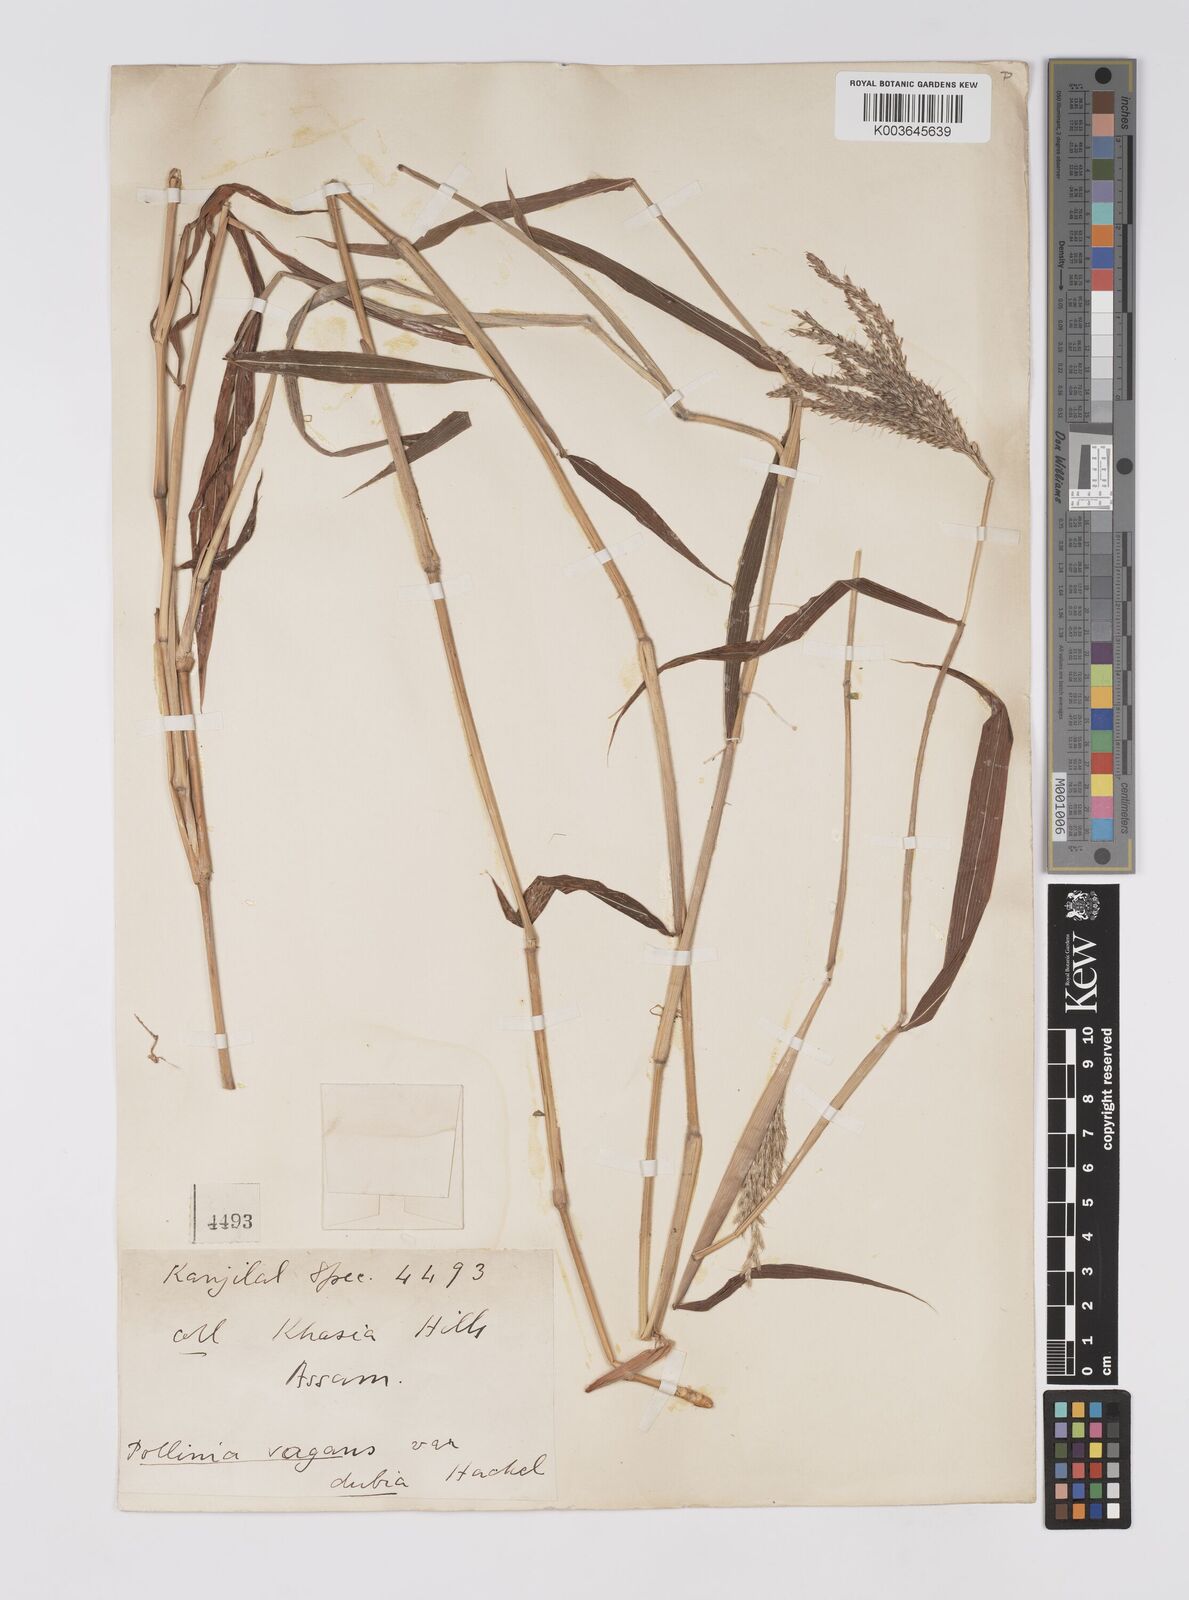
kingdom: Plantae
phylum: Tracheophyta
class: Liliopsida
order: Poales
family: Poaceae
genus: Microstegium
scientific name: Microstegium fasciculatum
